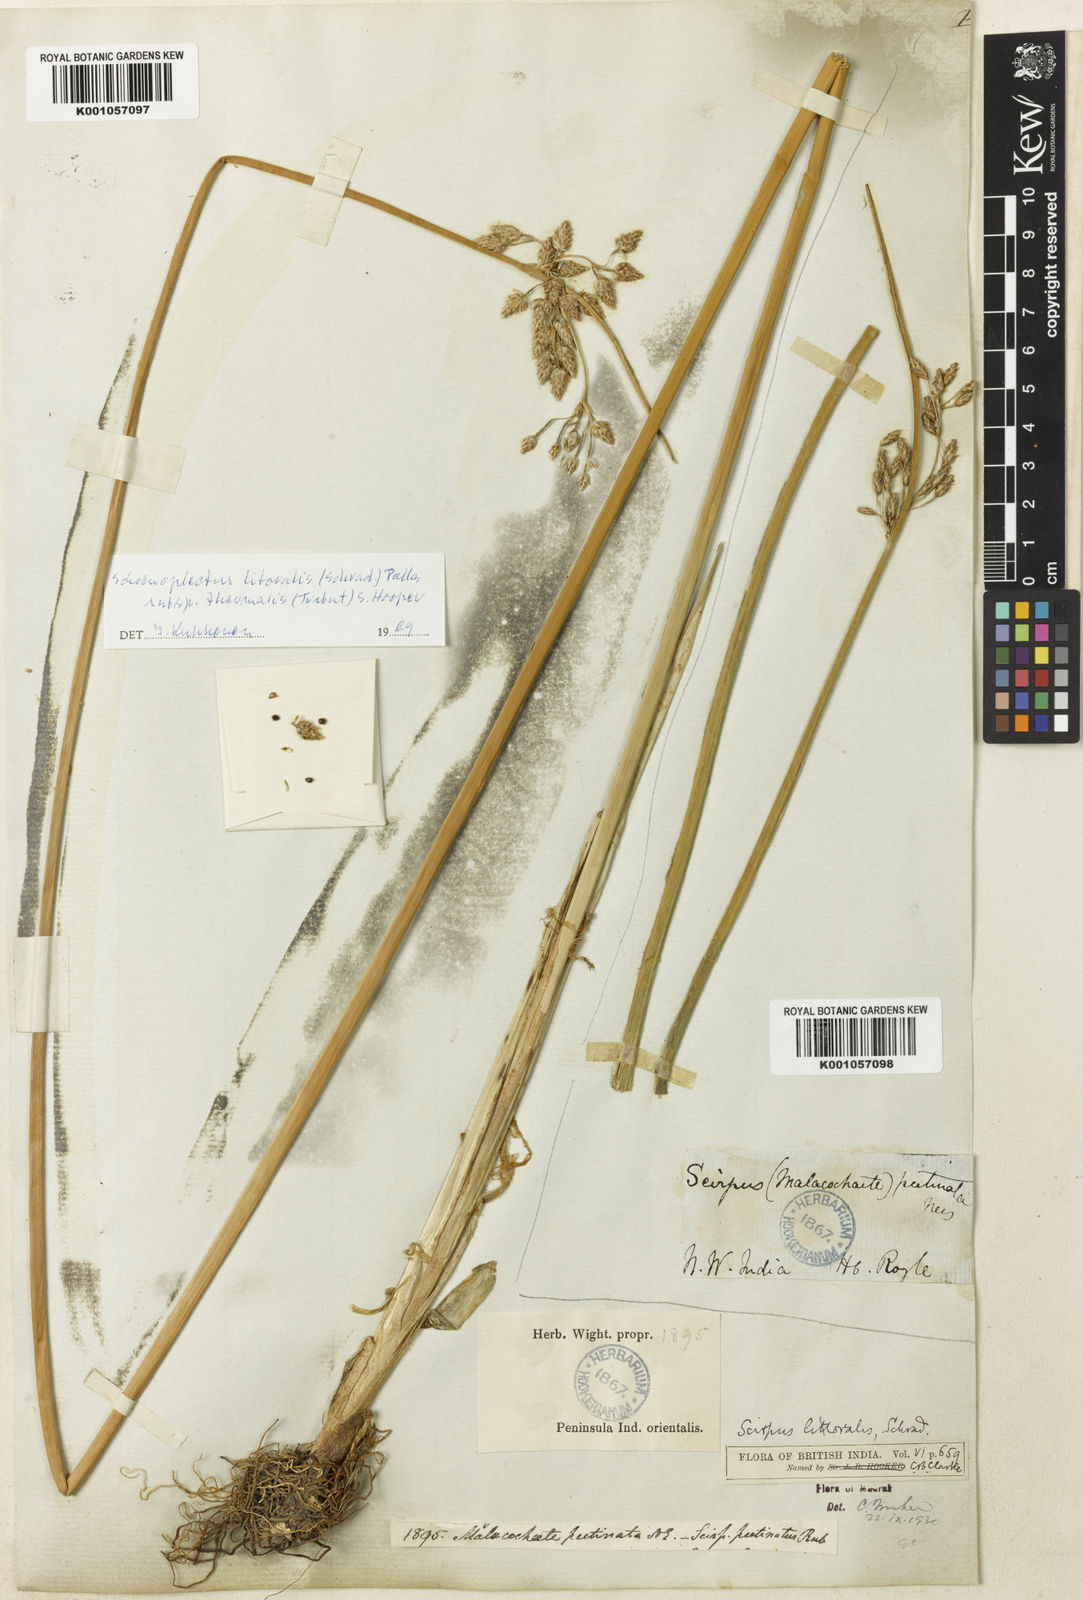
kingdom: Plantae
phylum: Tracheophyta
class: Liliopsida
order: Poales
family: Cyperaceae
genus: Schoenoplectus
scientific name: Schoenoplectus litoralis
